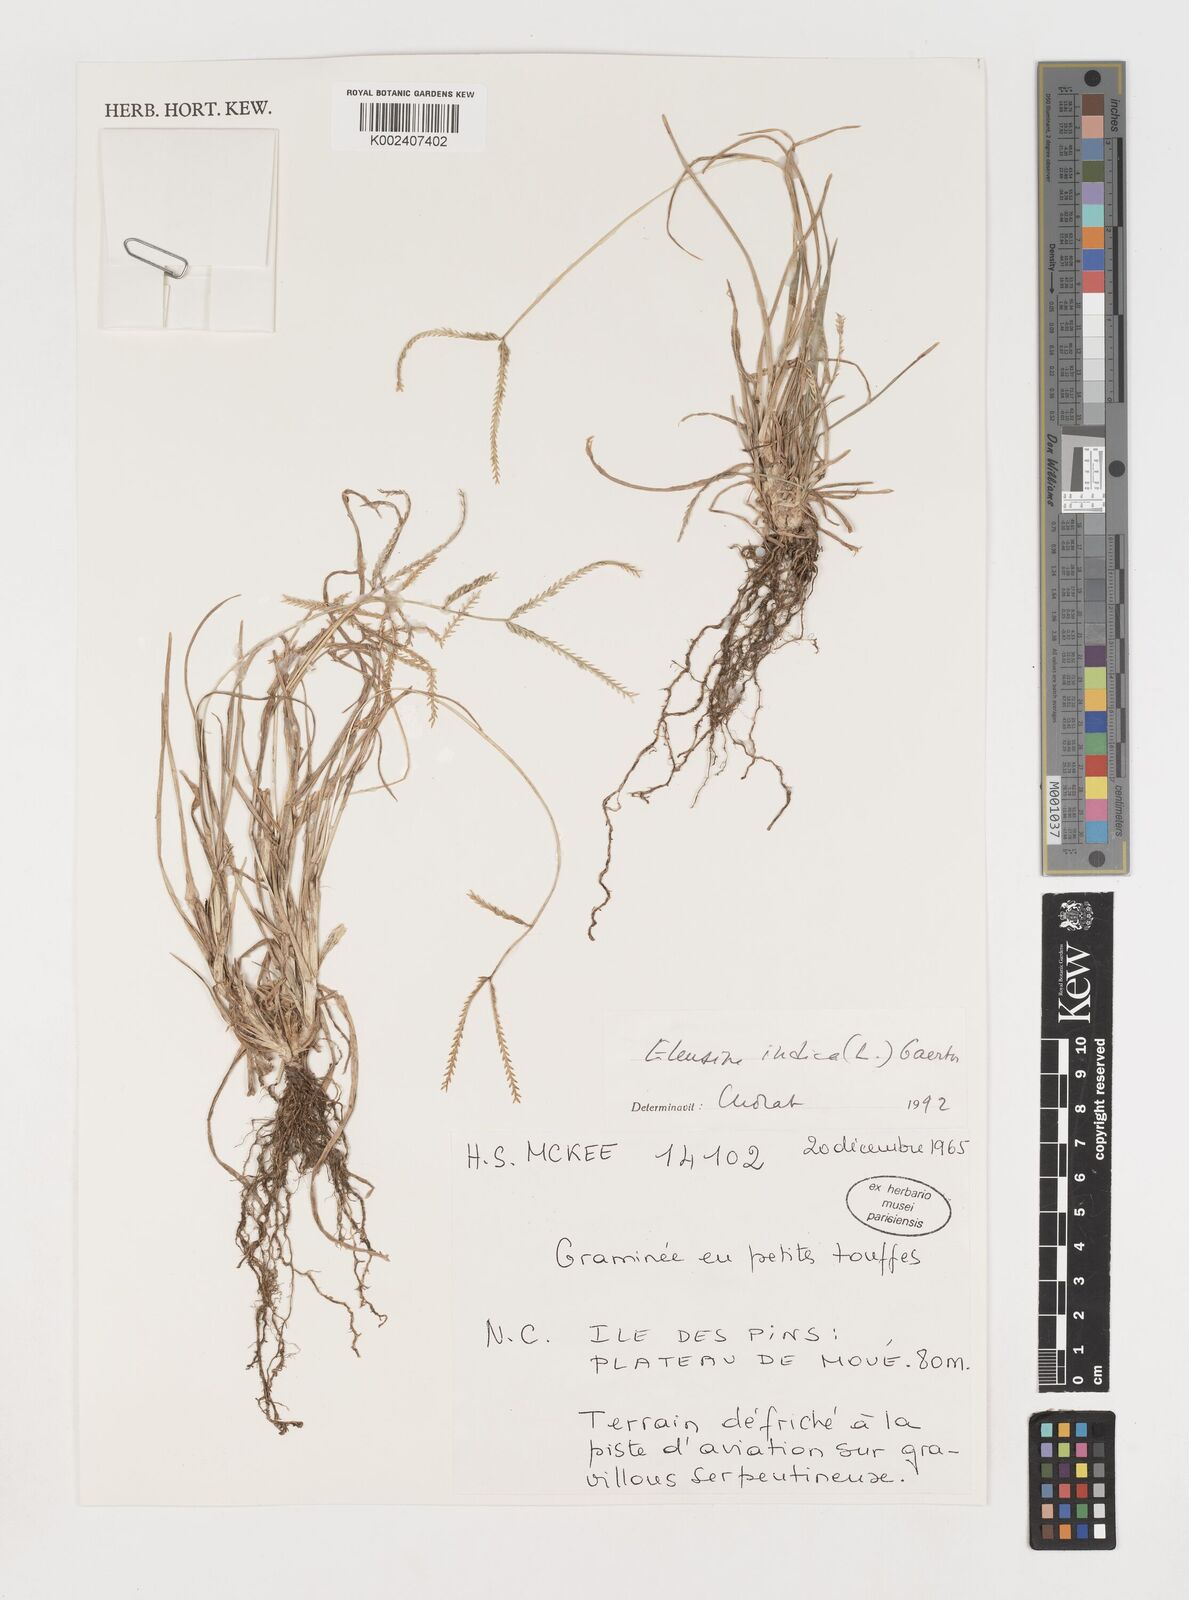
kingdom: Plantae
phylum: Tracheophyta
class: Liliopsida
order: Poales
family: Poaceae
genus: Eleusine
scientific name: Eleusine indica
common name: Yard-grass
